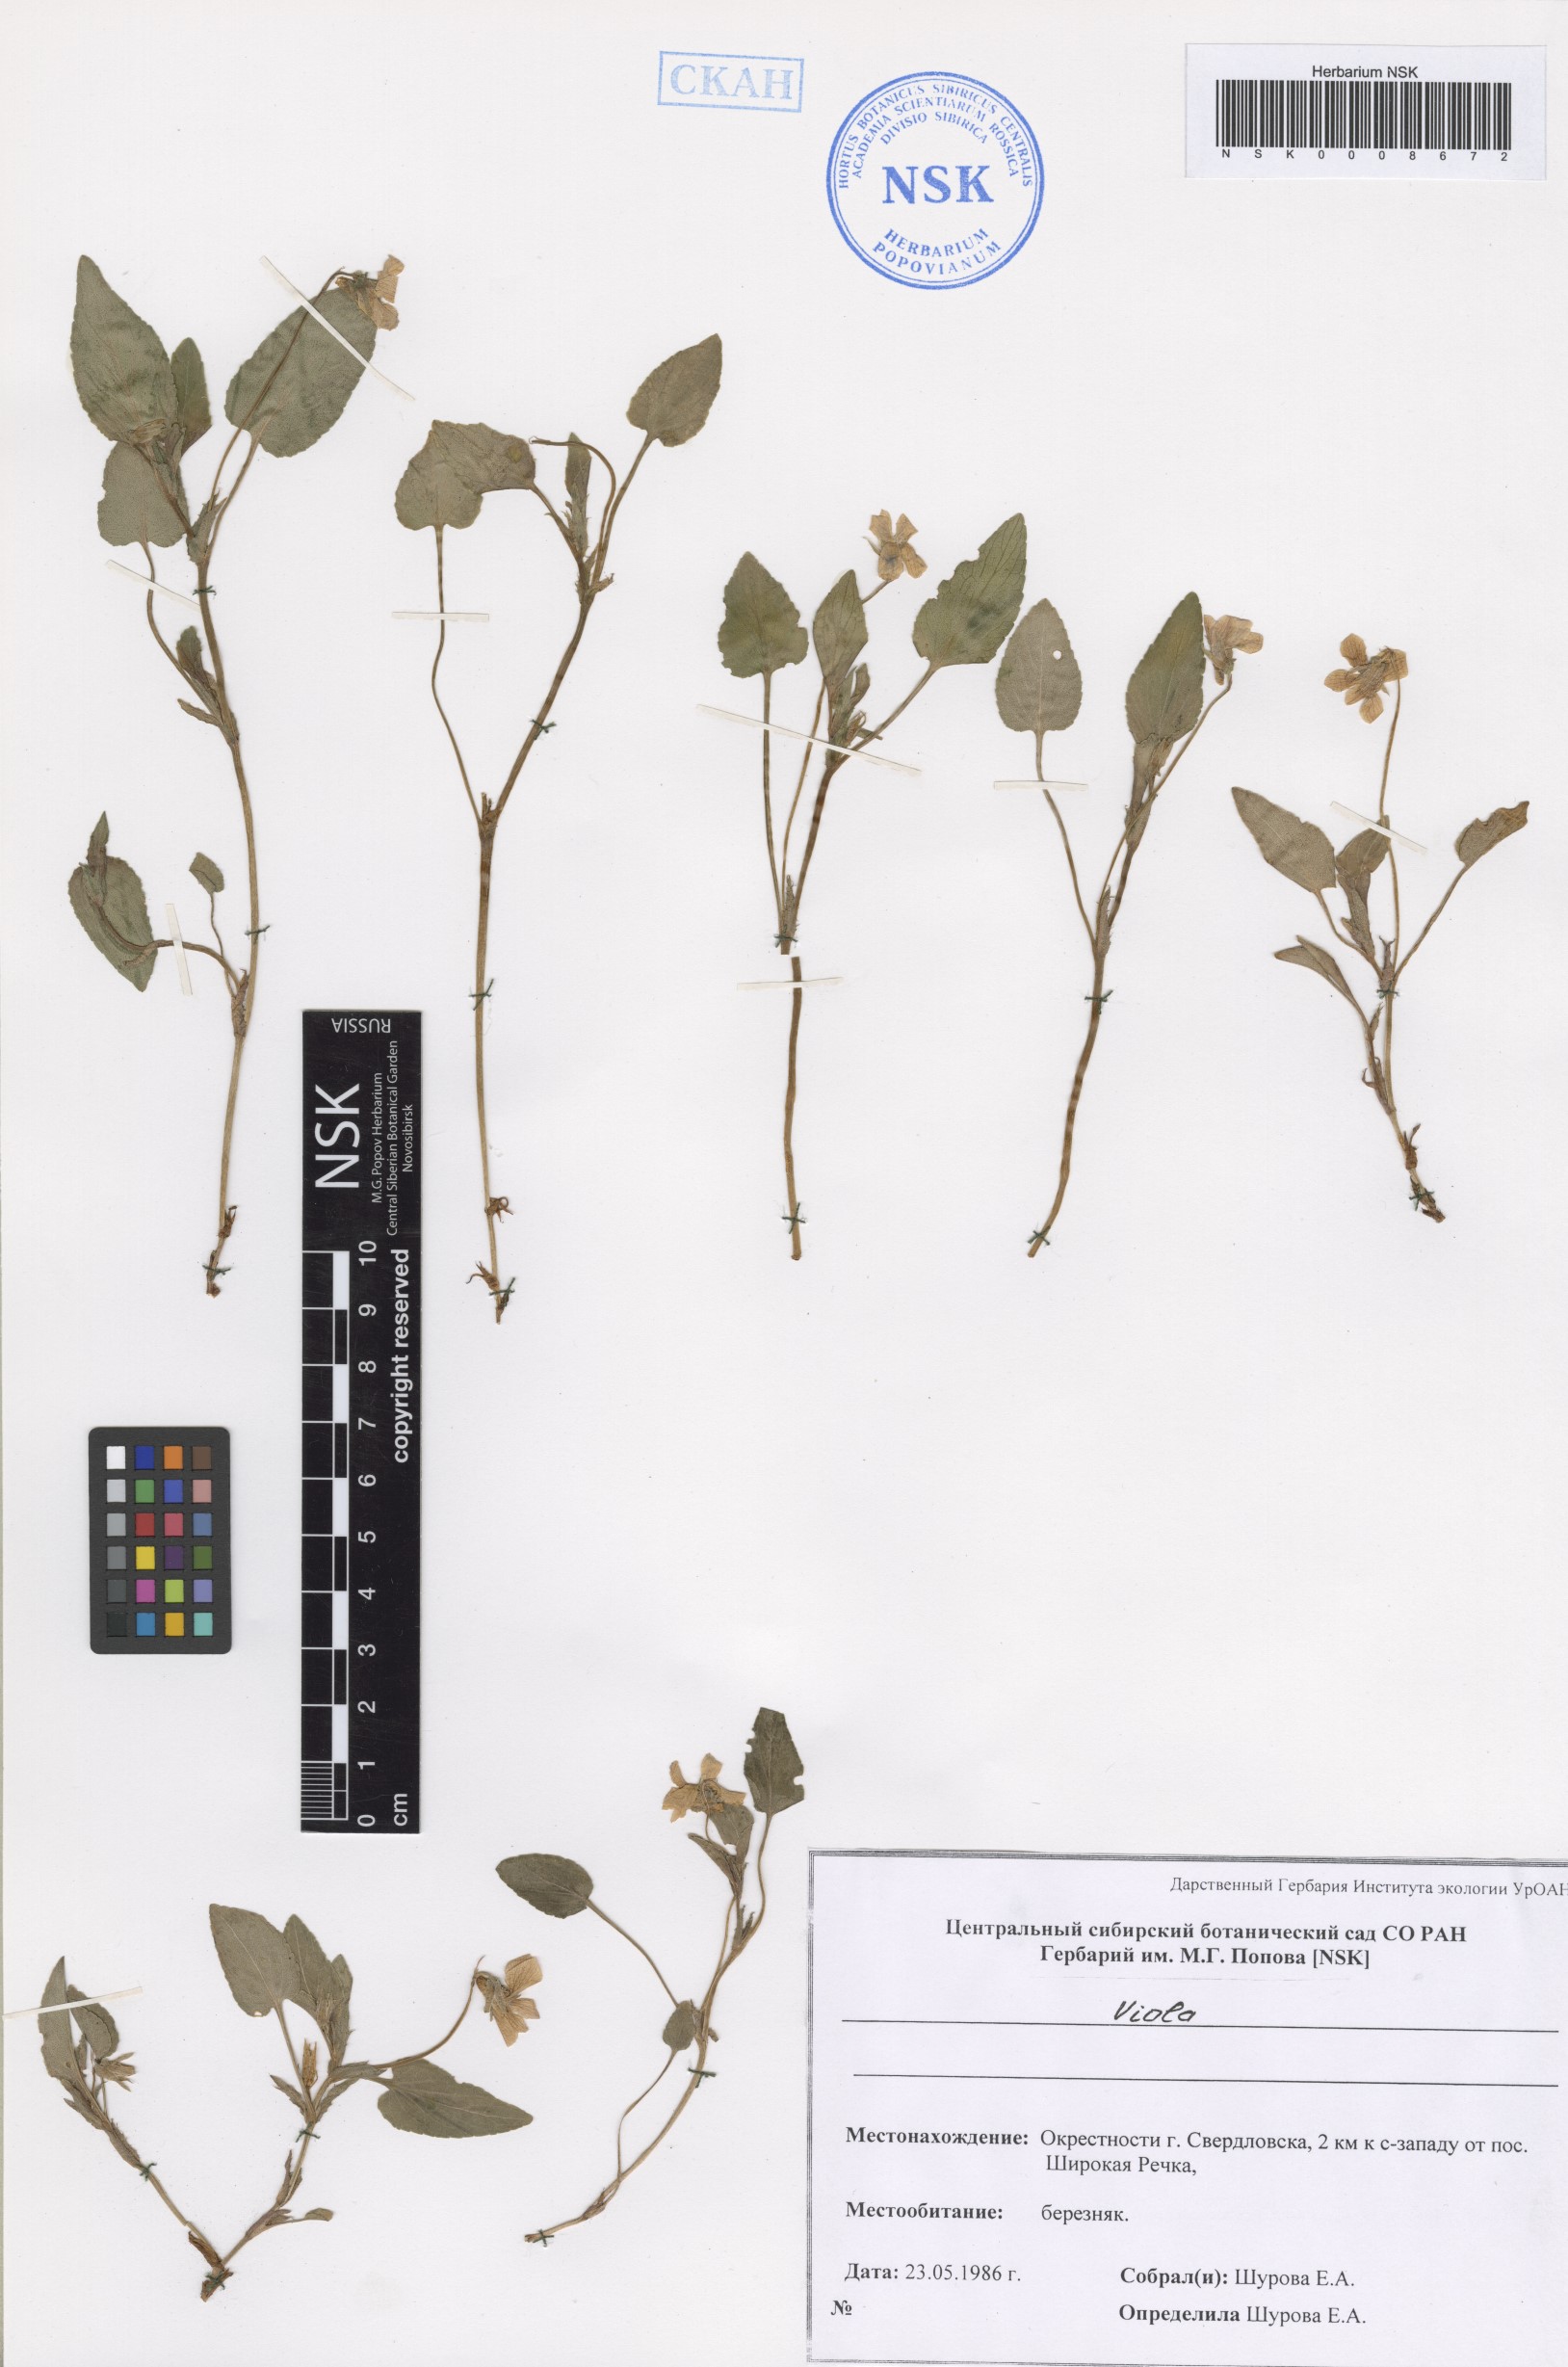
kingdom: Plantae
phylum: Tracheophyta
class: Magnoliopsida
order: Malpighiales
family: Violaceae
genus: Viola
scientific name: Viola
